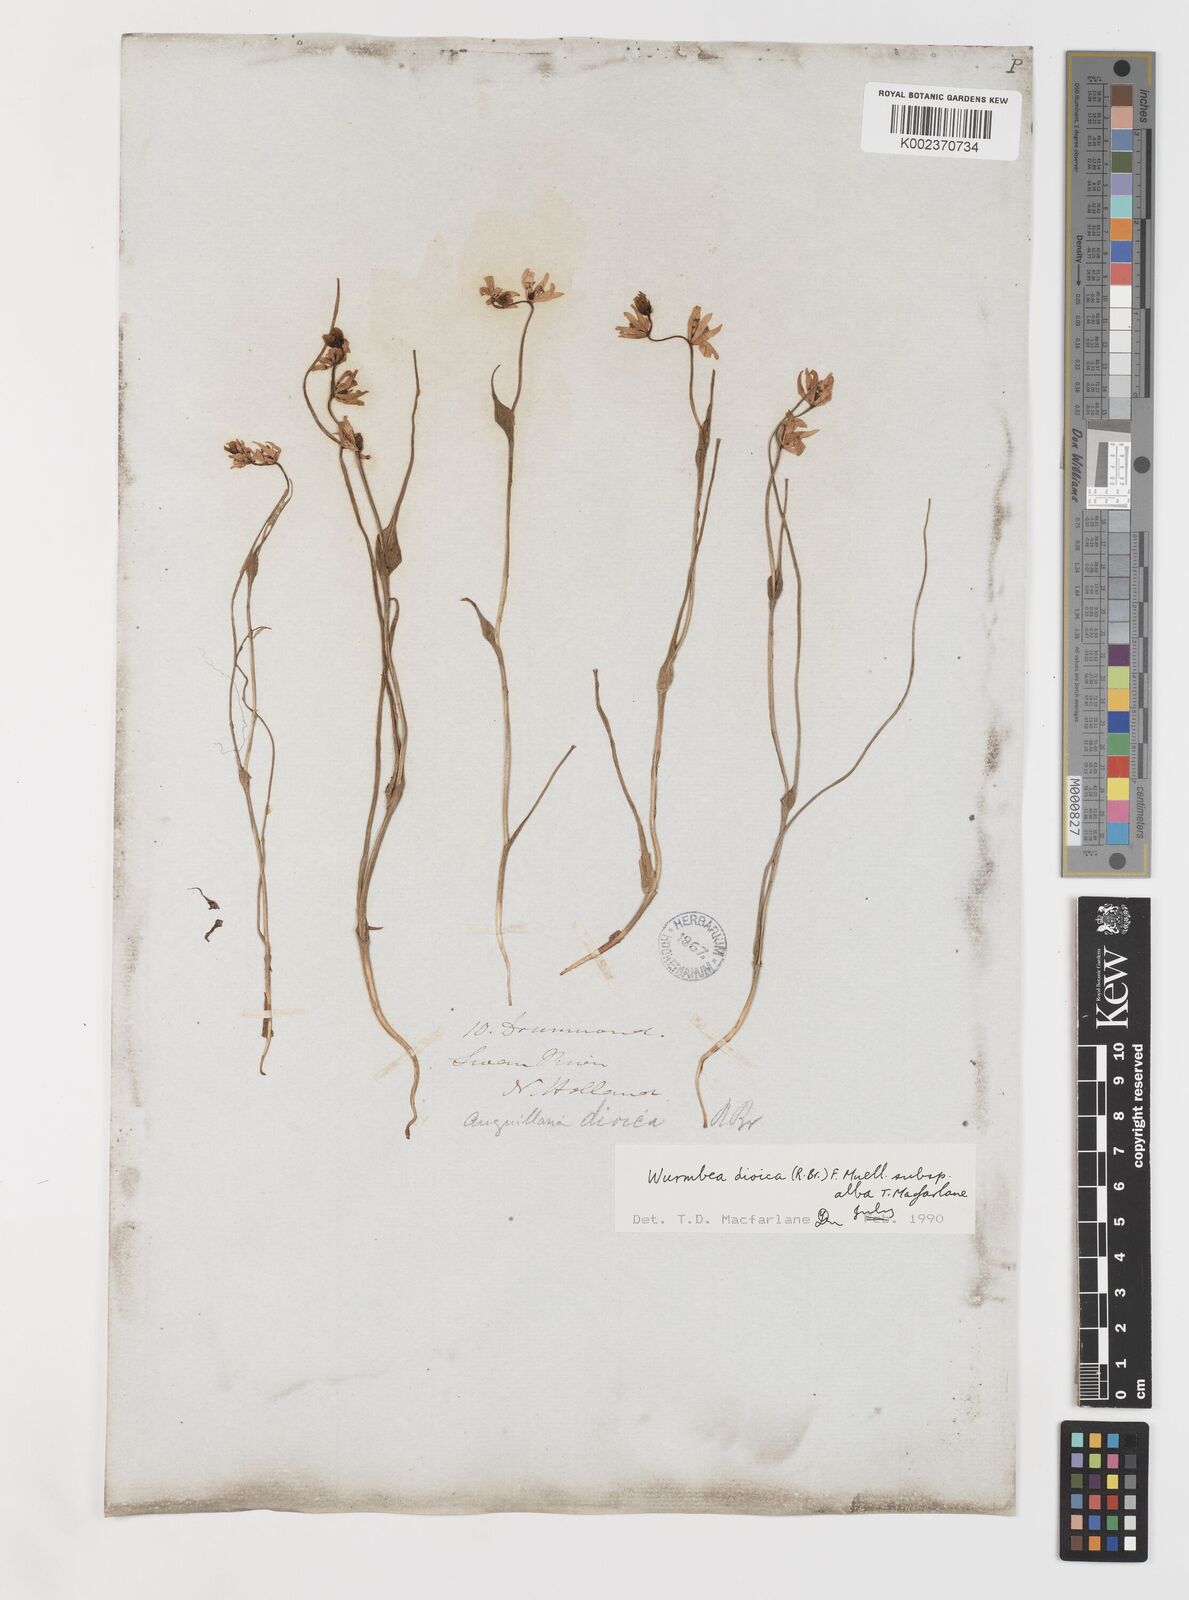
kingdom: Plantae
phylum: Tracheophyta
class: Liliopsida
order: Liliales
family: Colchicaceae
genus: Wurmbea
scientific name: Wurmbea dioica
